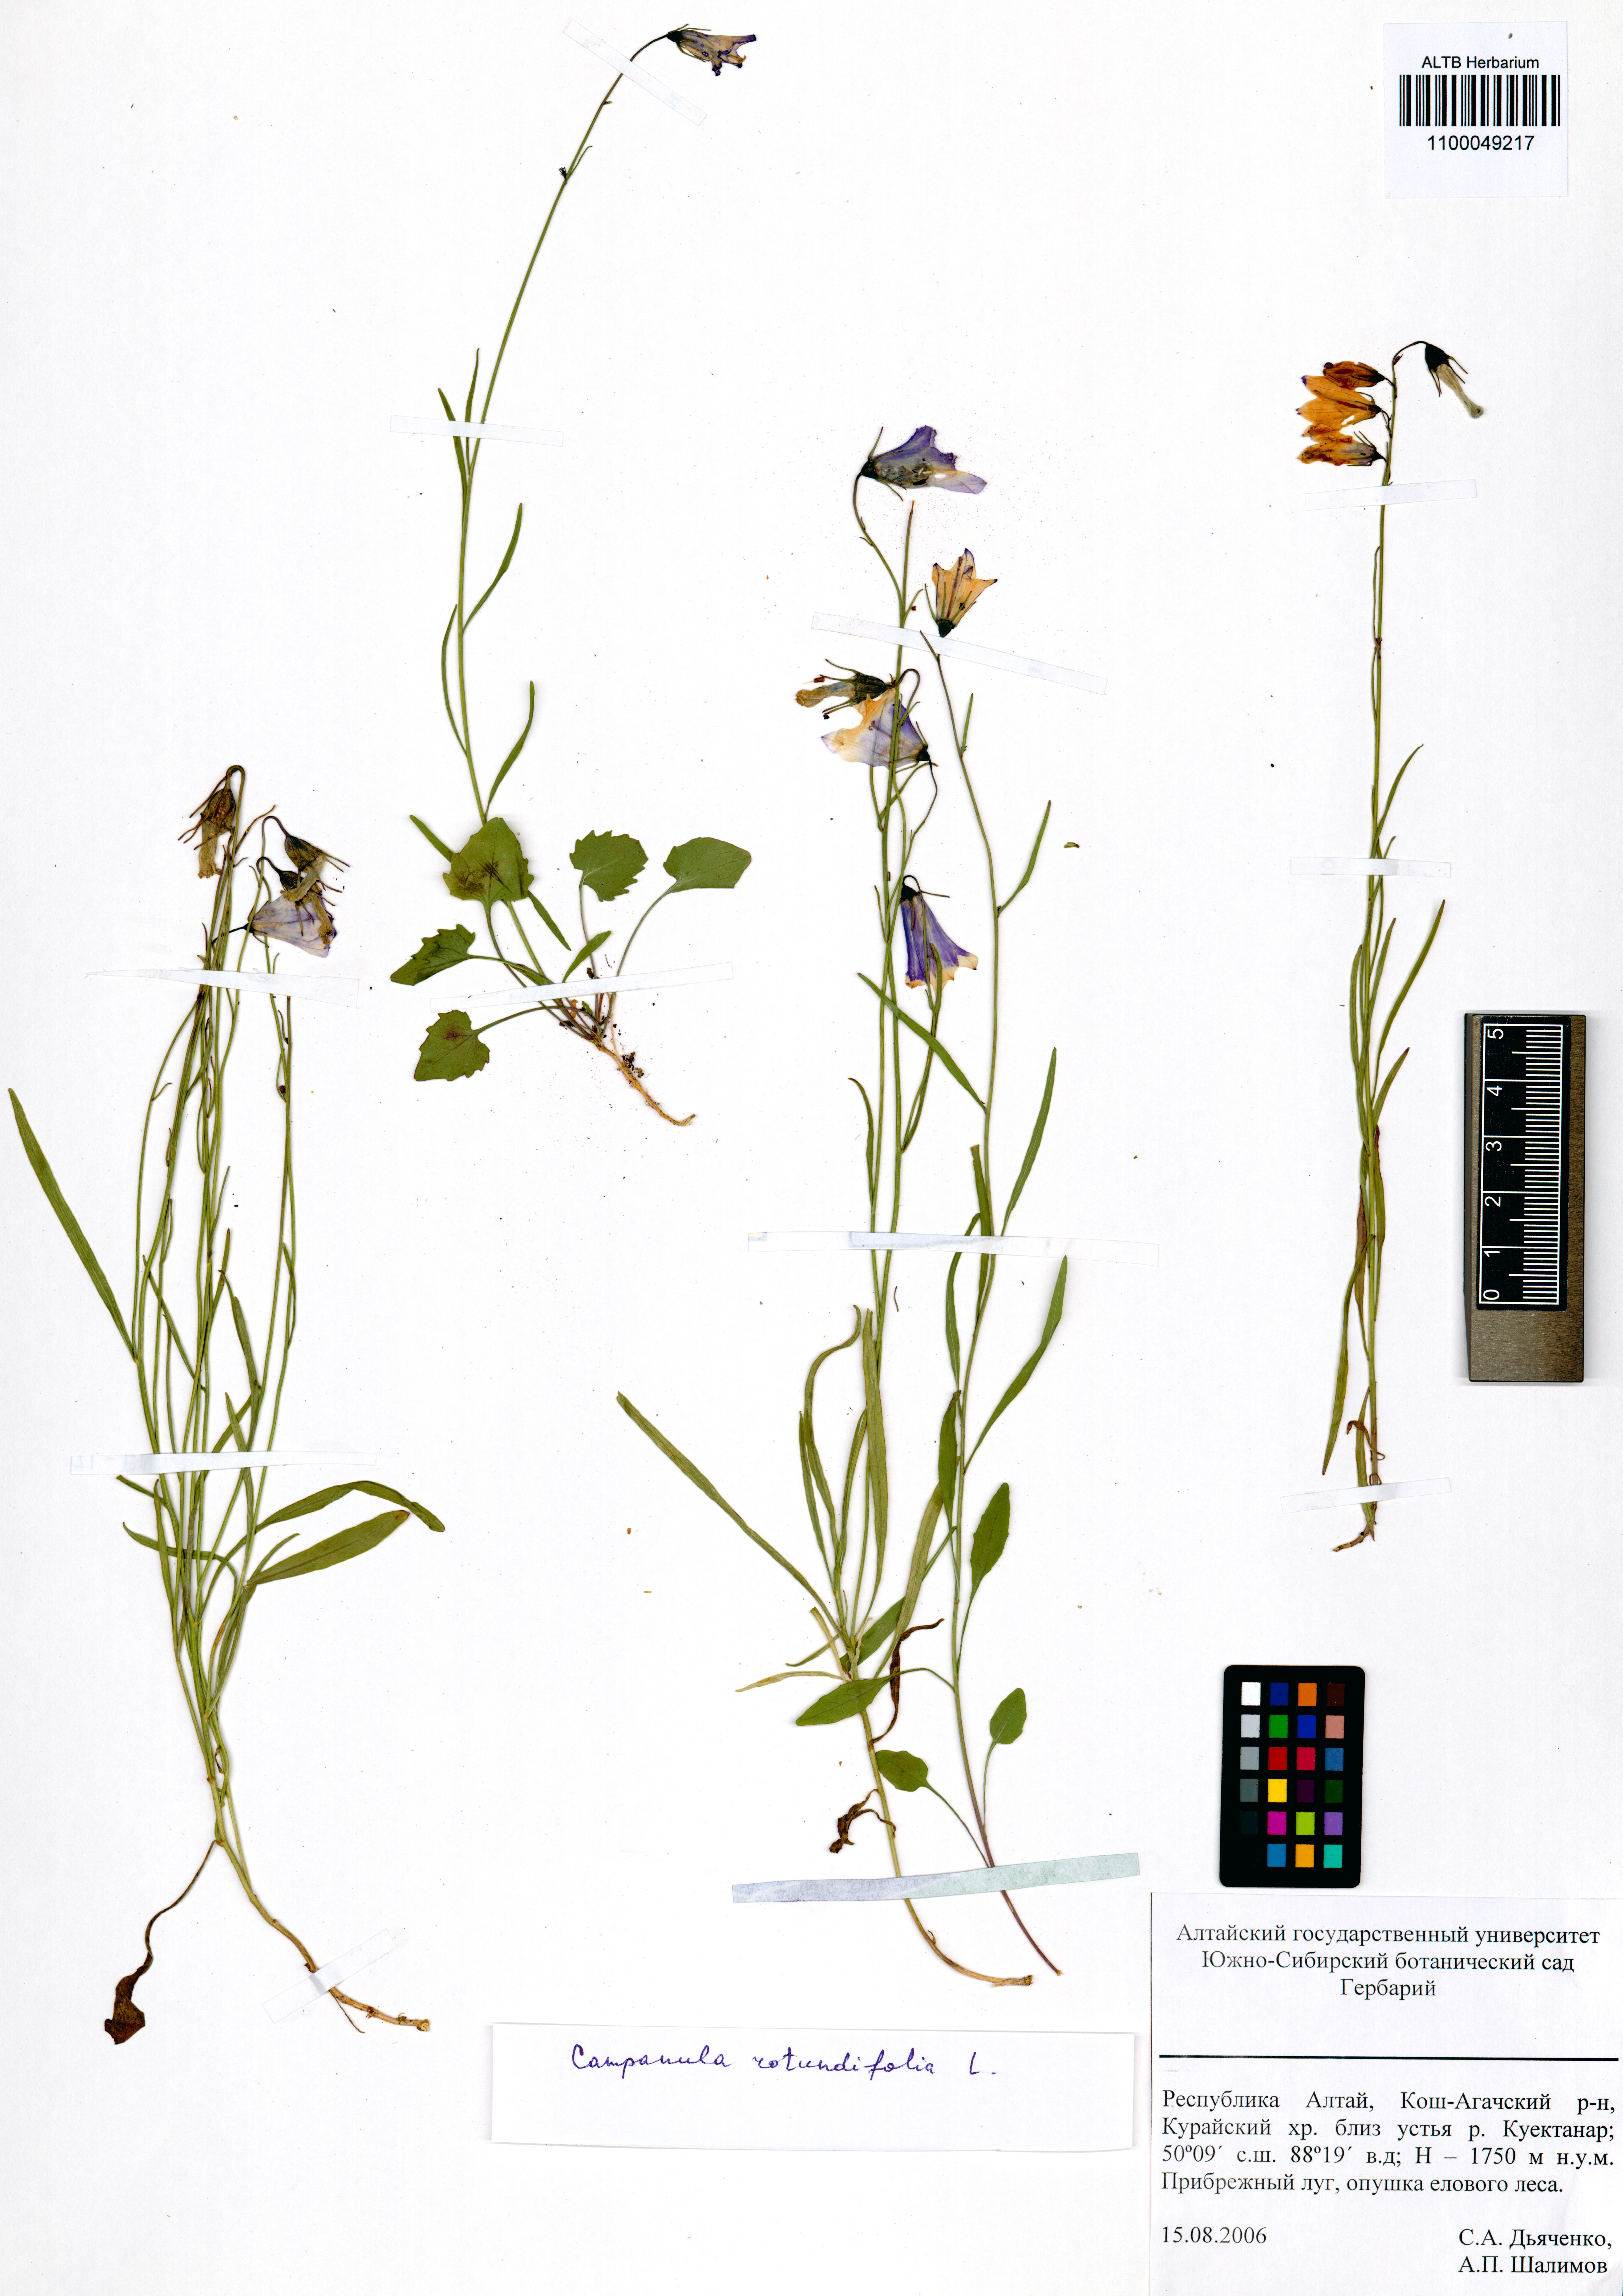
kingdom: Plantae
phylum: Tracheophyta
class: Magnoliopsida
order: Asterales
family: Campanulaceae
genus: Campanula
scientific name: Campanula rotundifolia
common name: Harebell
